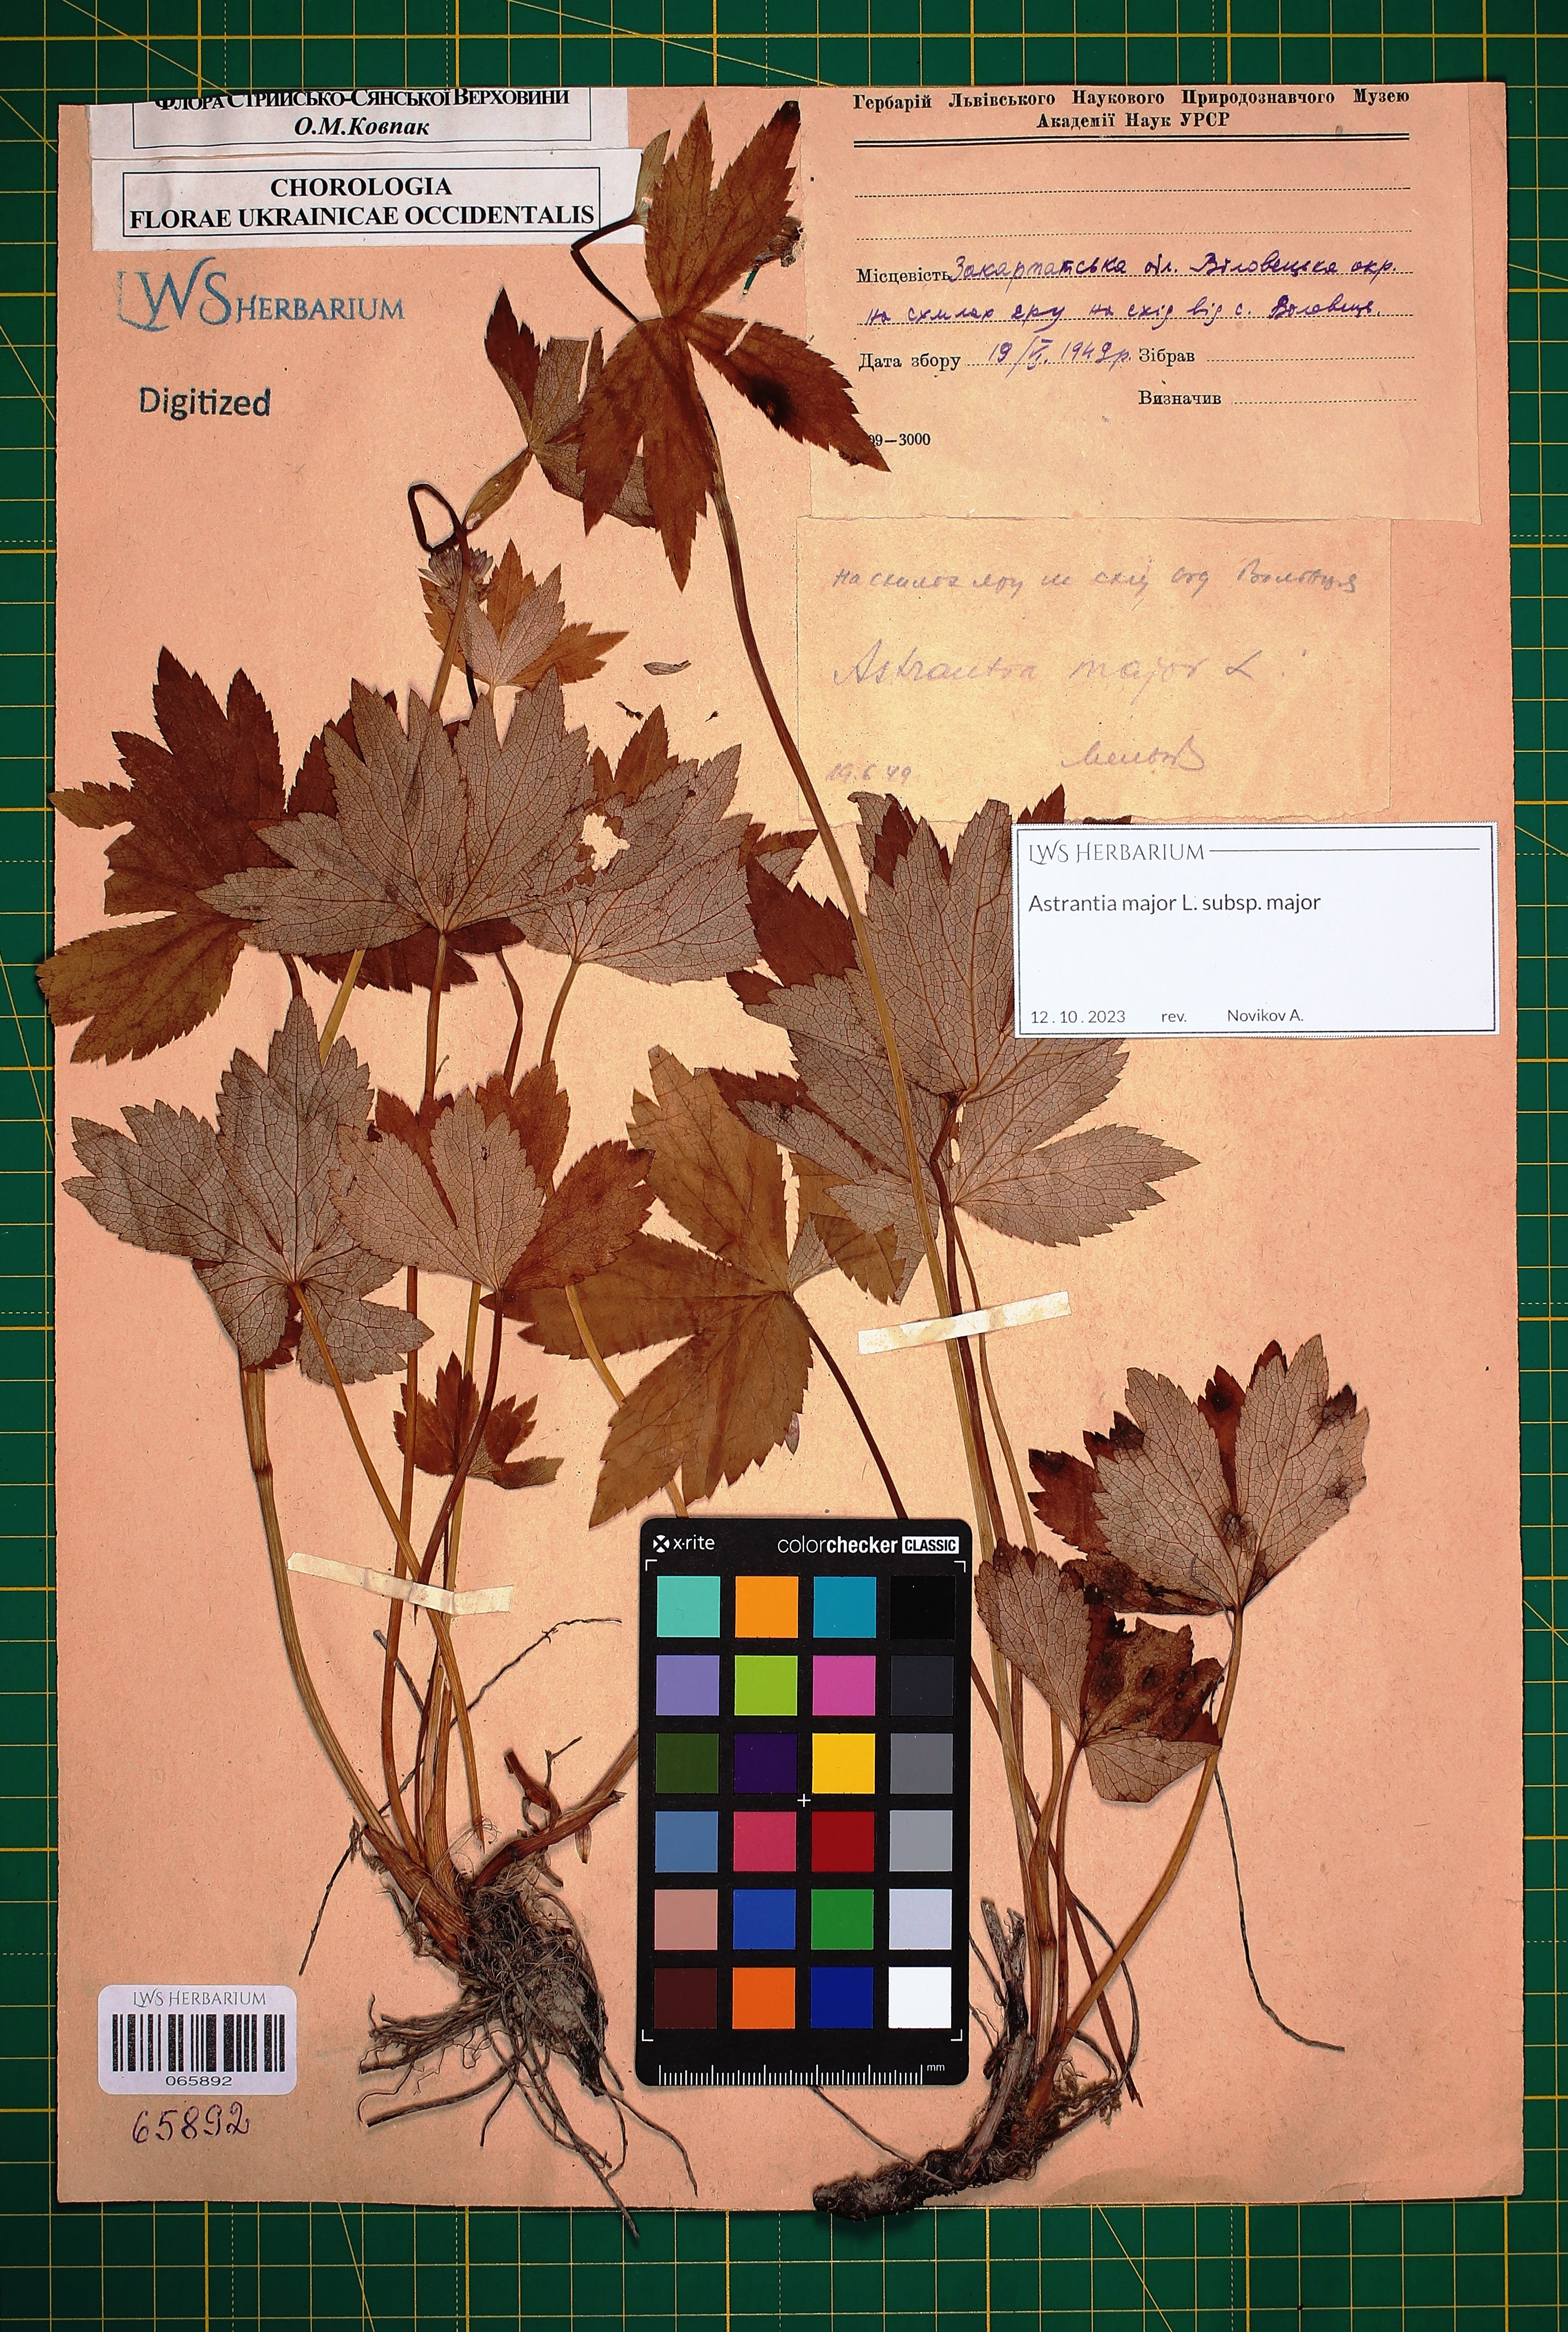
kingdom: Plantae
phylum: Tracheophyta
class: Magnoliopsida
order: Apiales
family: Apiaceae
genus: Astrantia
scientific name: Astrantia major
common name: Greater masterwort
